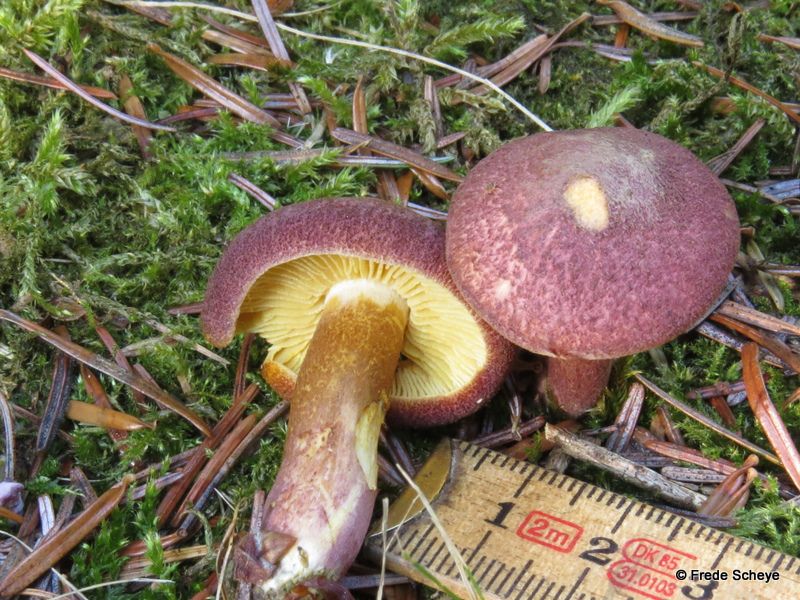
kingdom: Fungi
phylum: Basidiomycota
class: Agaricomycetes
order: Agaricales
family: Tricholomataceae
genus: Tricholomopsis
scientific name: Tricholomopsis rutilans
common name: purpur-væbnerhat
